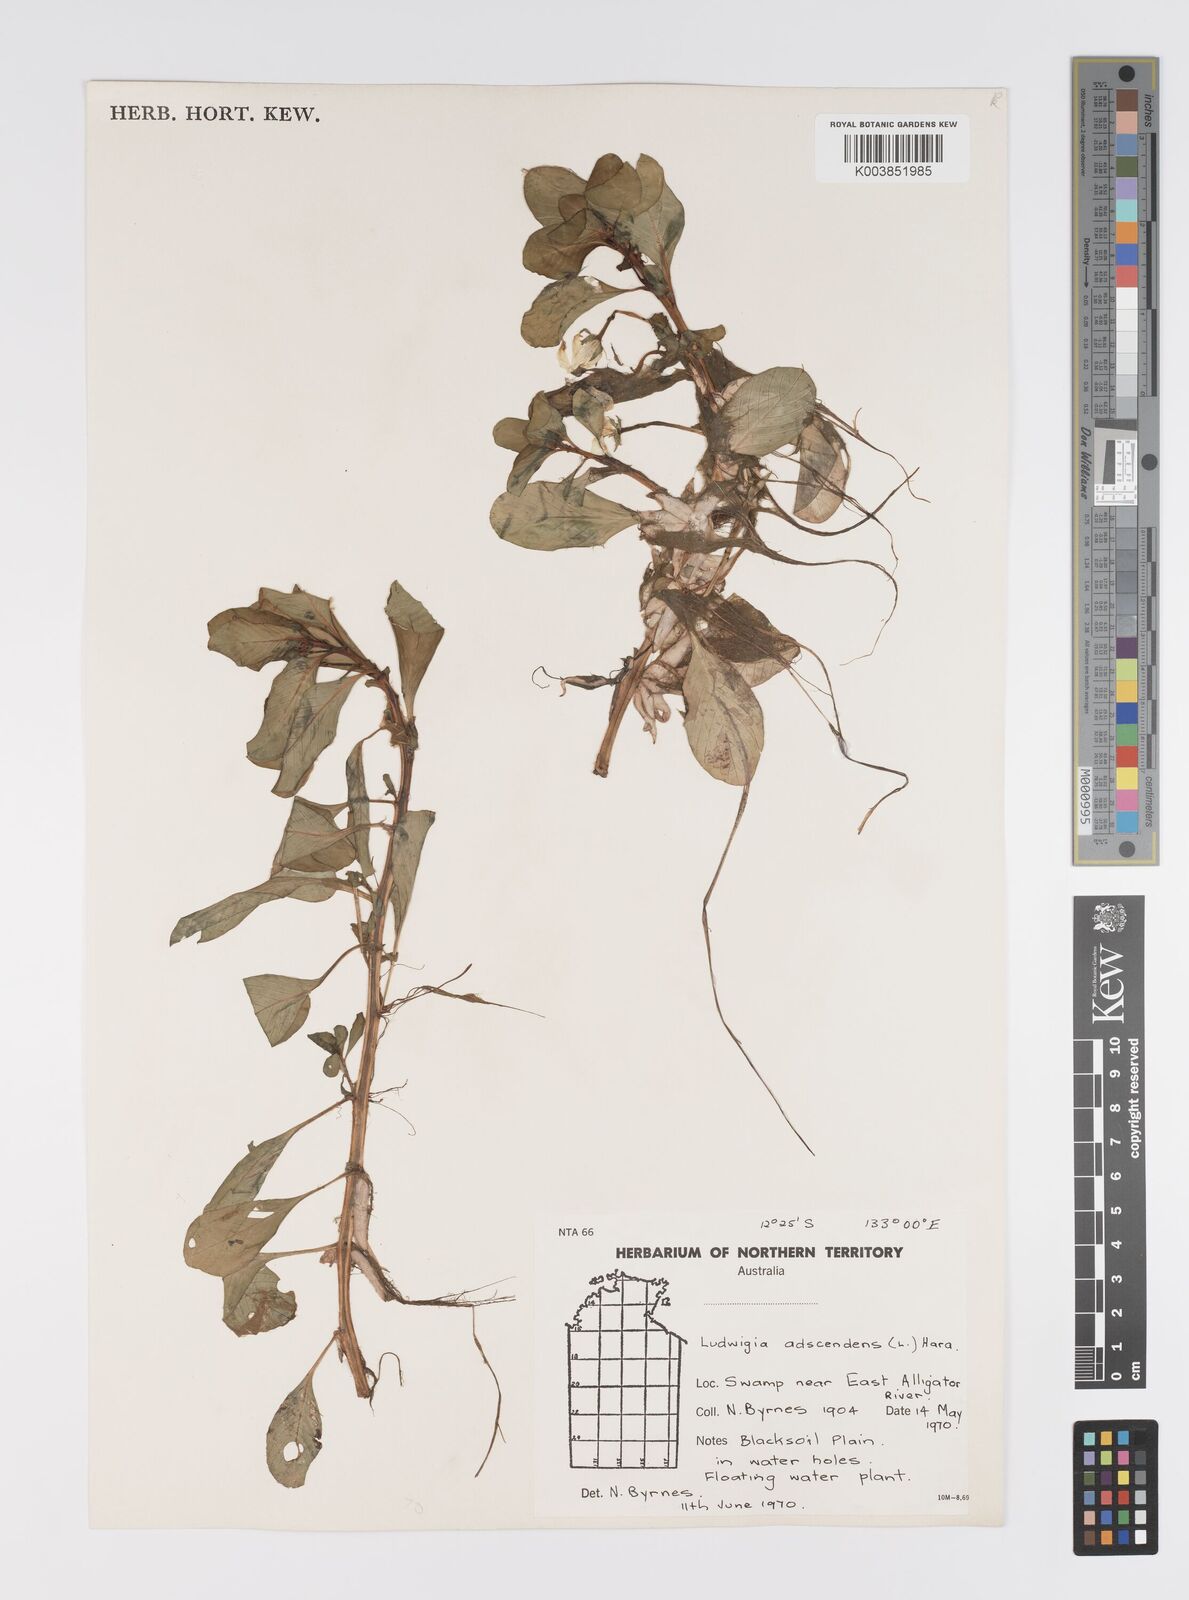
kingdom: Plantae
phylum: Tracheophyta
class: Magnoliopsida
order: Myrtales
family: Onagraceae
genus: Ludwigia
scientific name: Ludwigia adscendens
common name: Creeping water primrose
